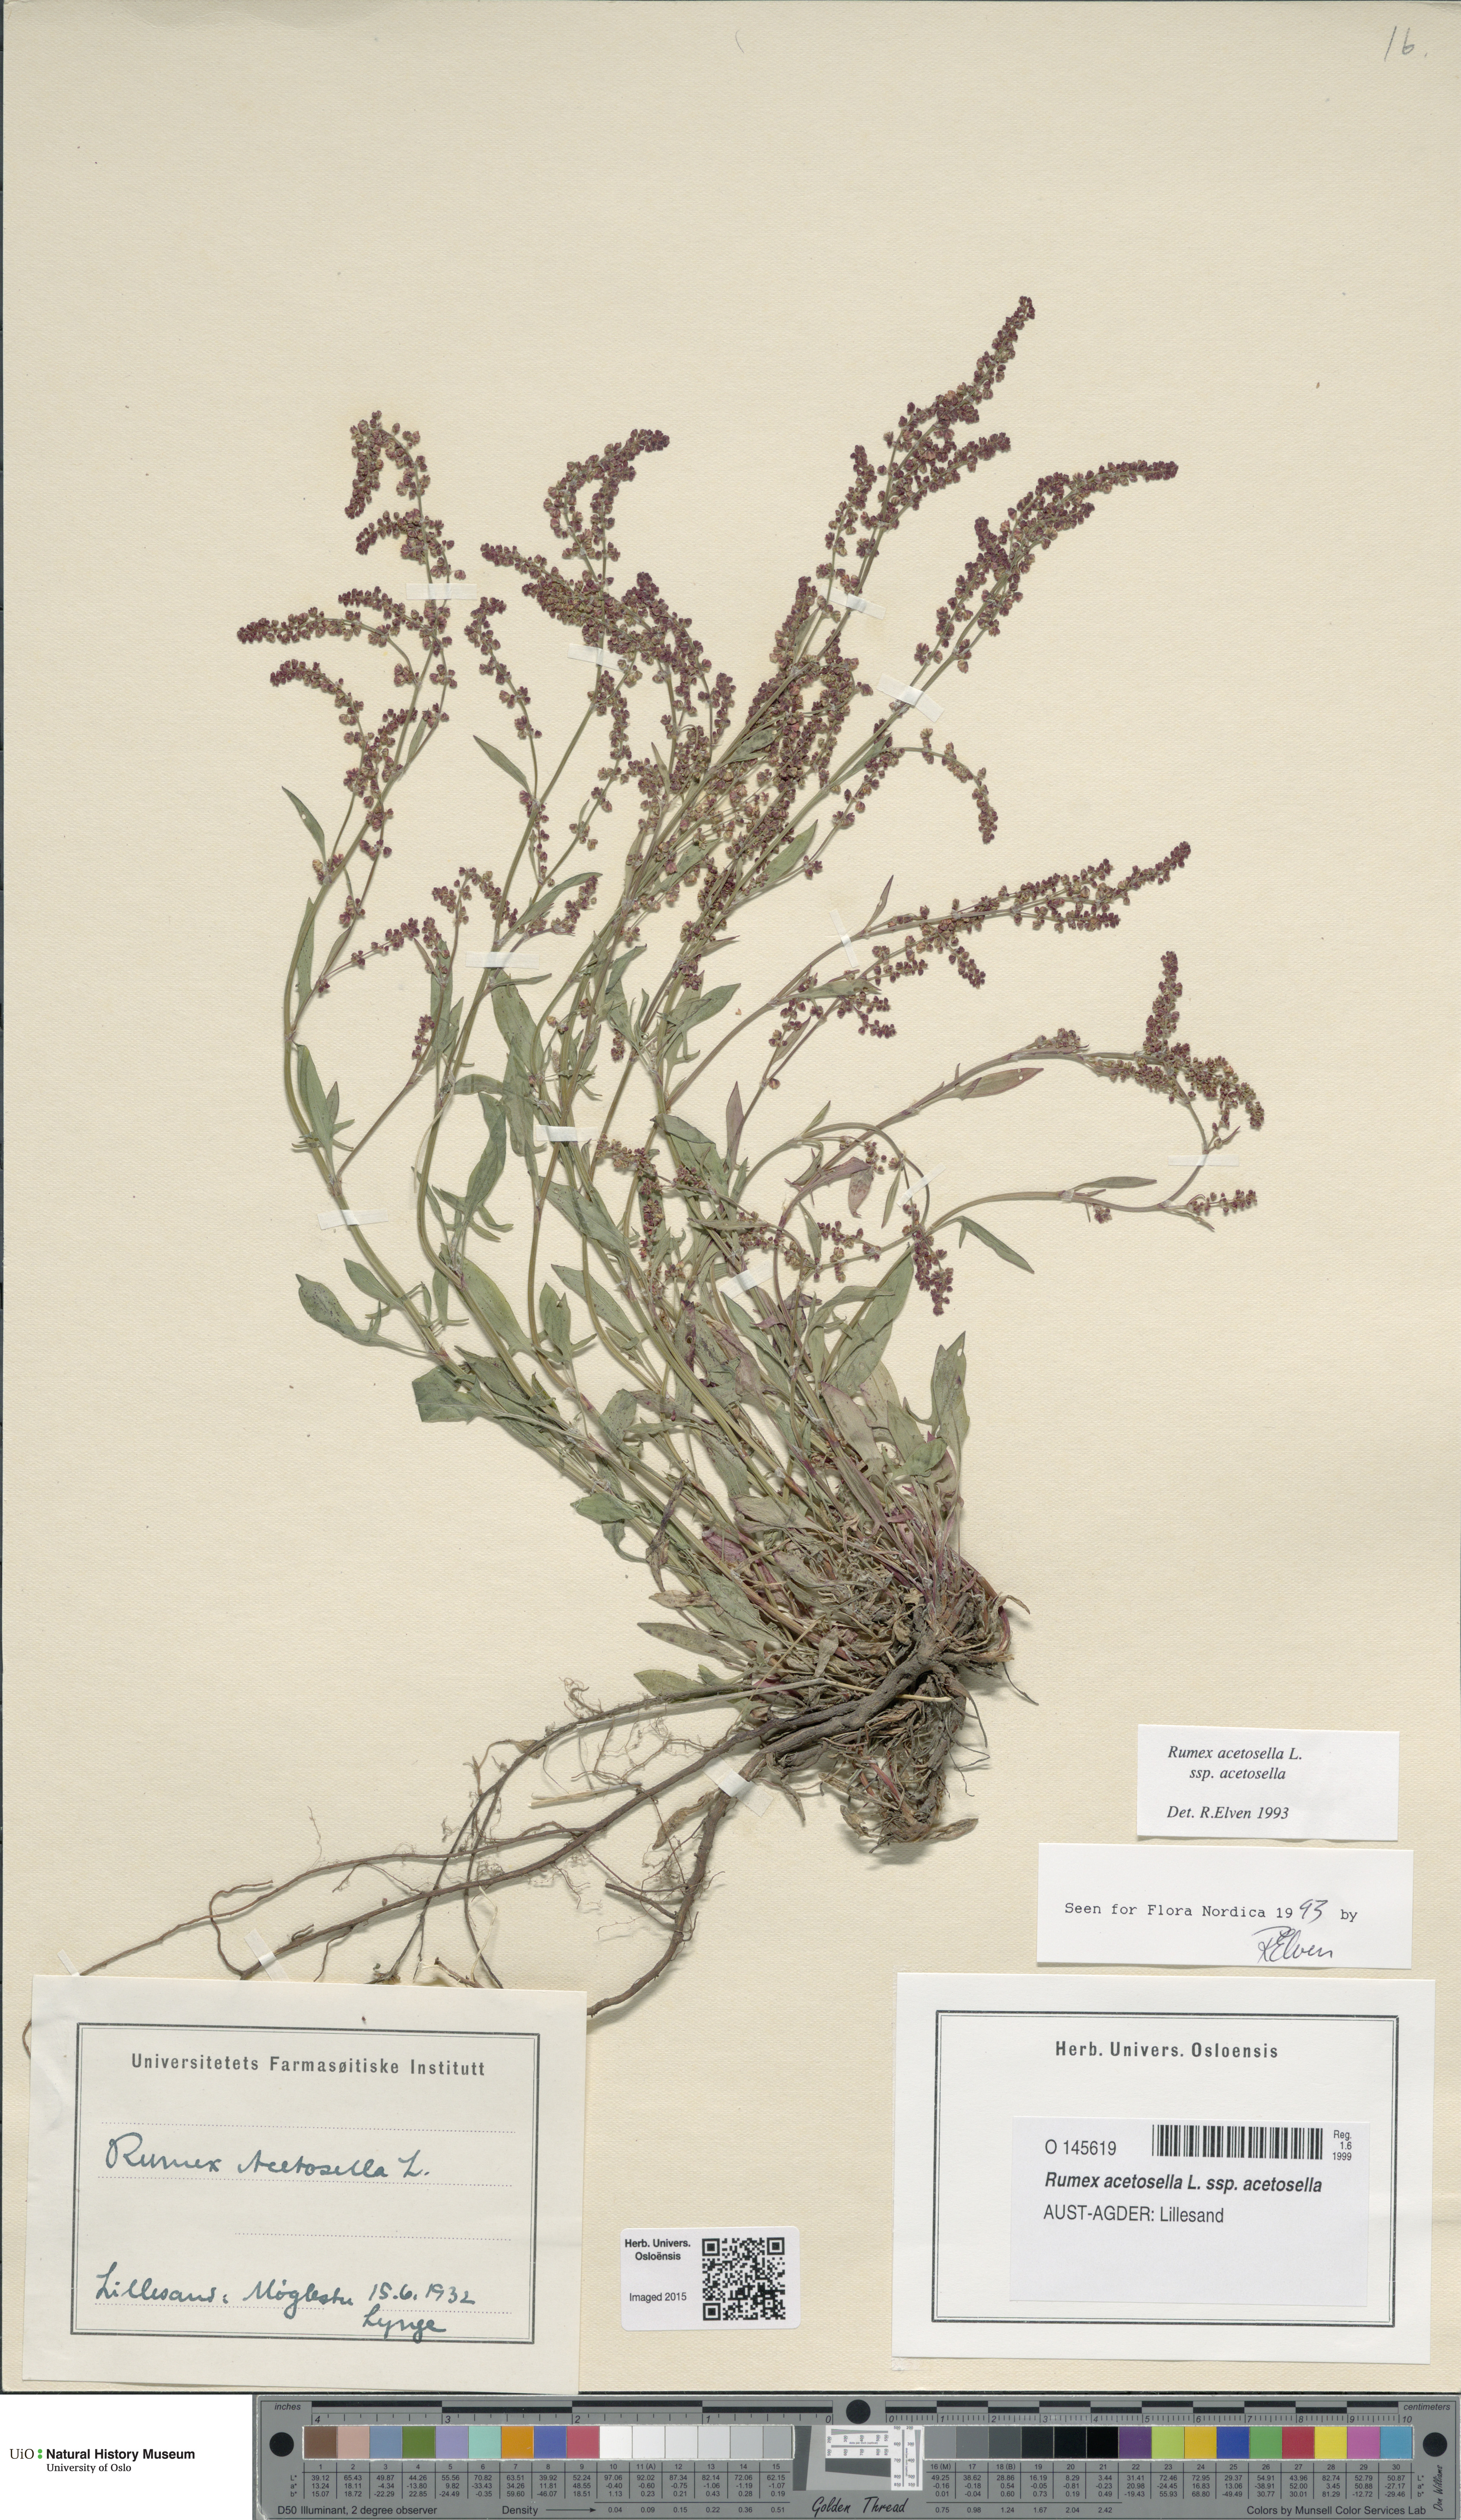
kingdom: Plantae
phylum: Tracheophyta
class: Magnoliopsida
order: Caryophyllales
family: Polygonaceae
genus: Rumex
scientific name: Rumex acetosella
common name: Common sheep sorrel
